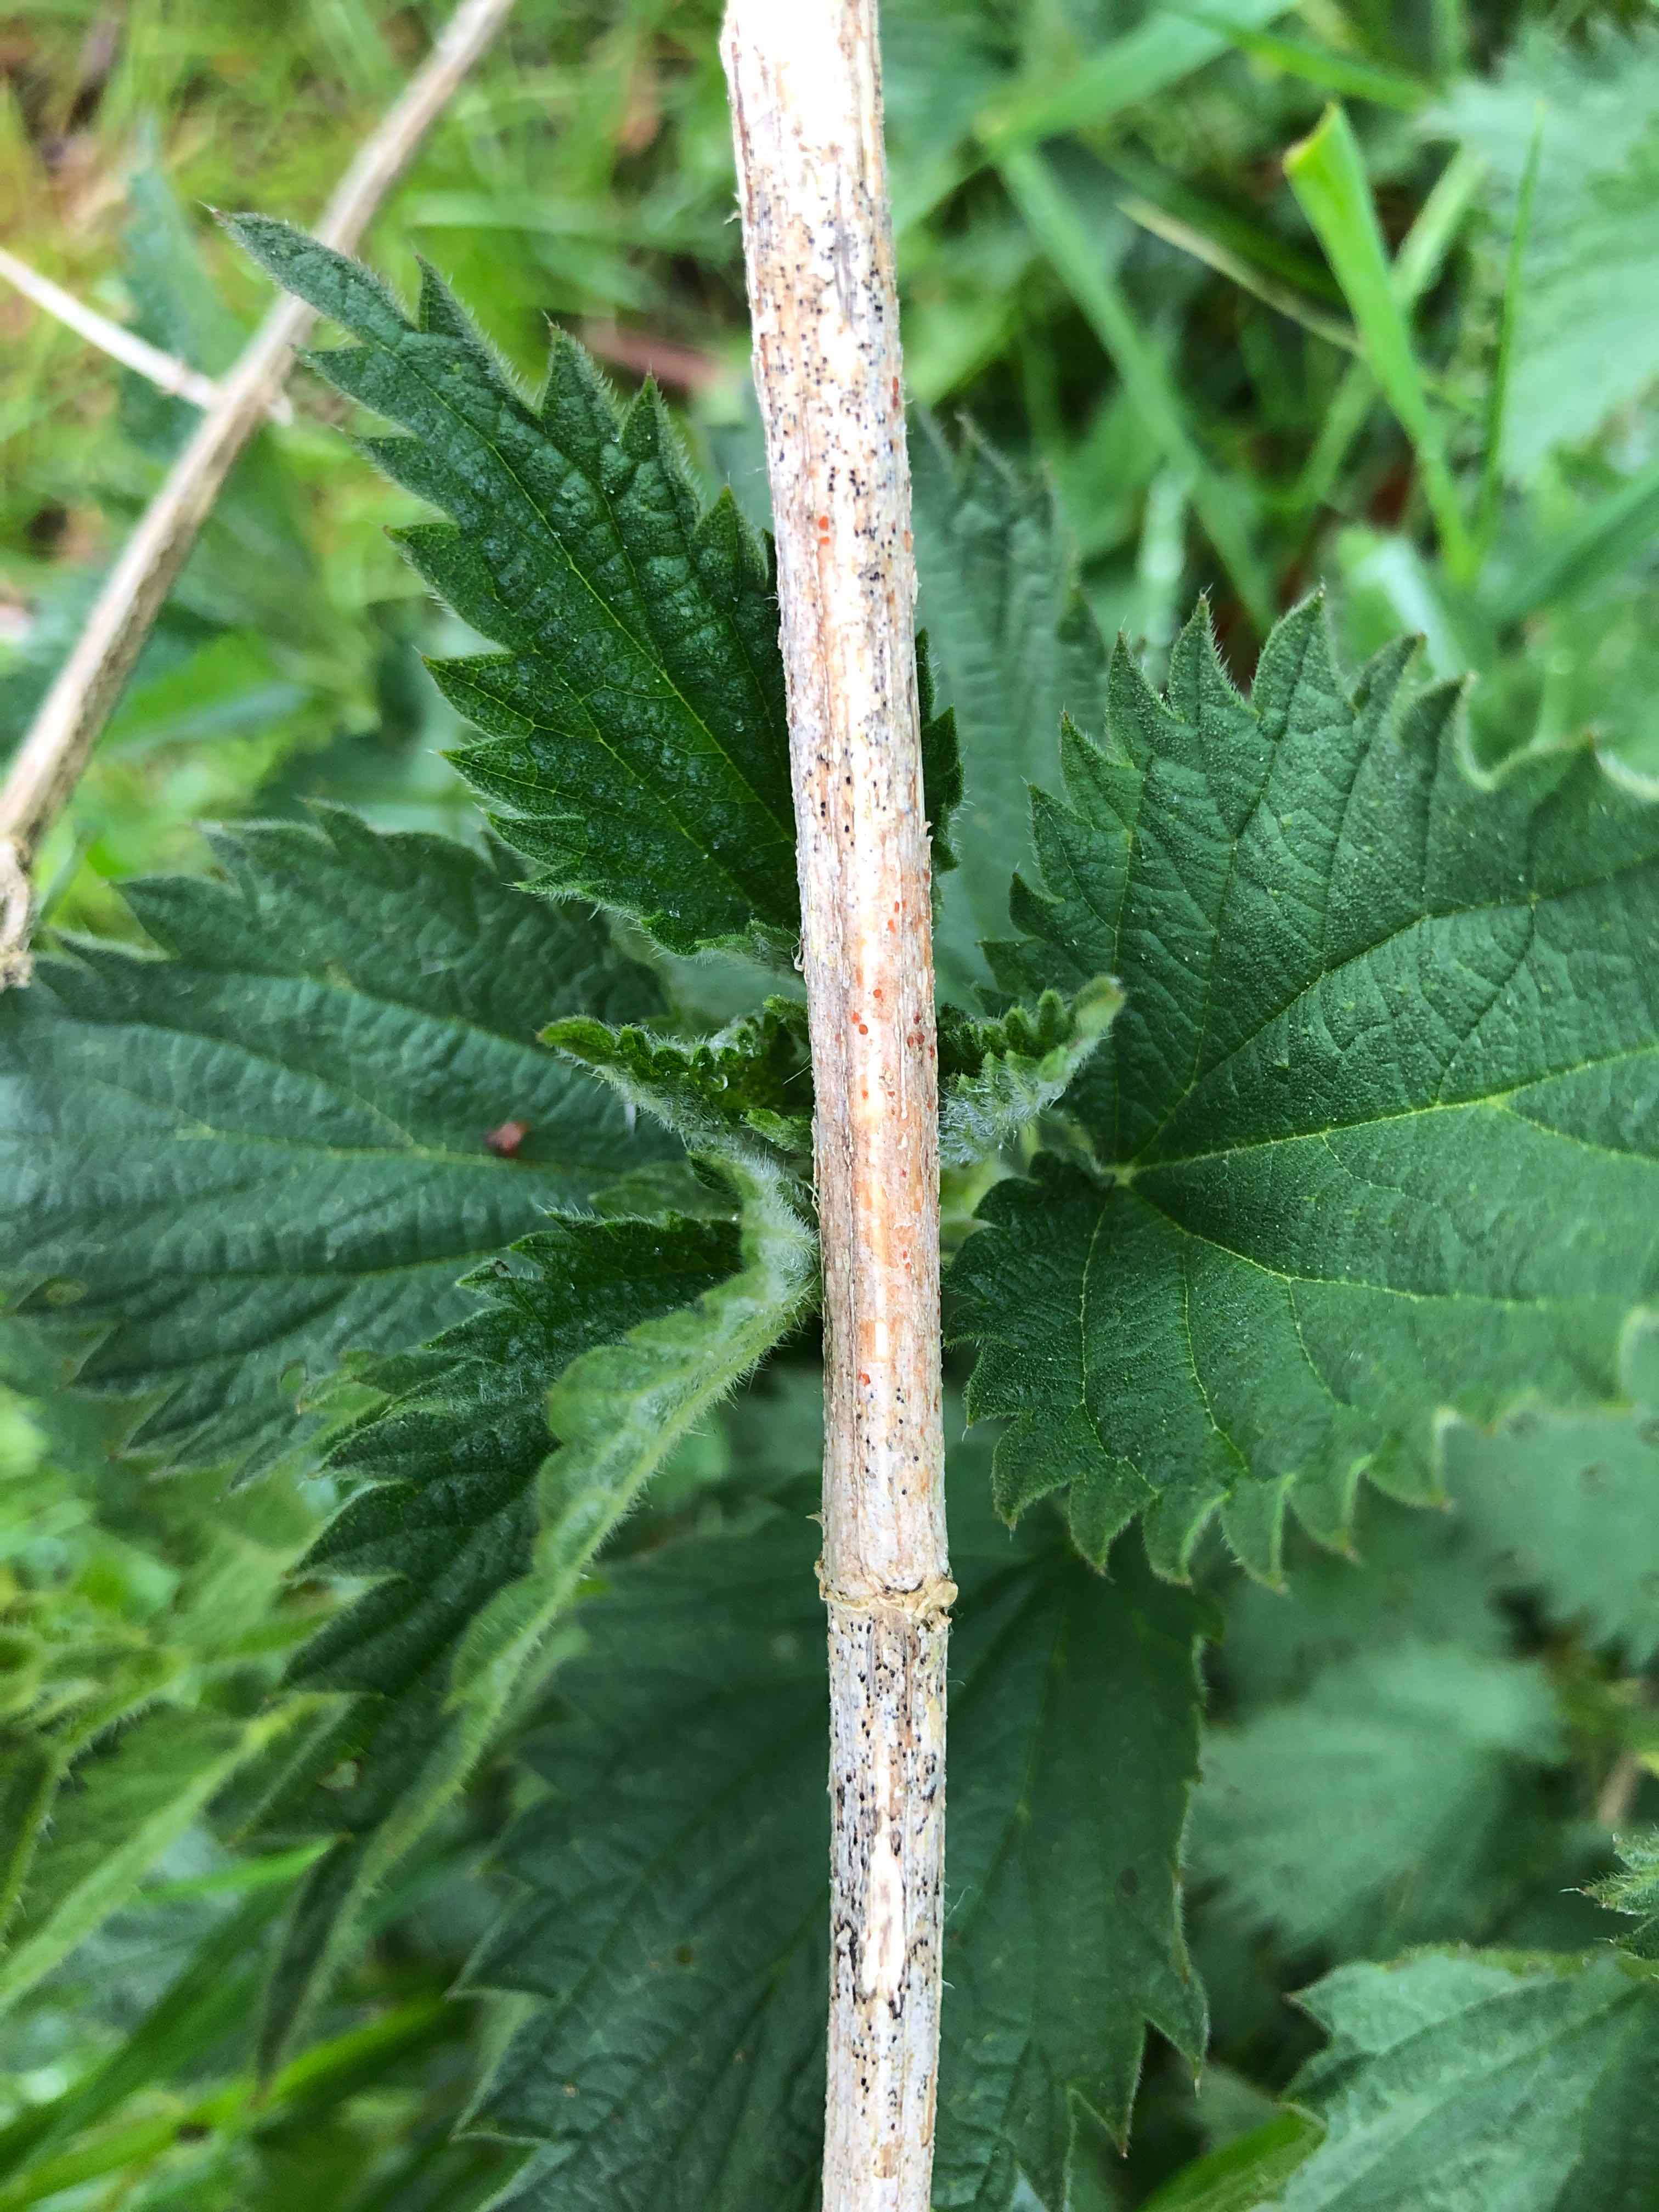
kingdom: Fungi
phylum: Ascomycota
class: Leotiomycetes
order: Helotiales
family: Calloriaceae
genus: Calloria
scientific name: Calloria urticae
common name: nælde-orangeskive
